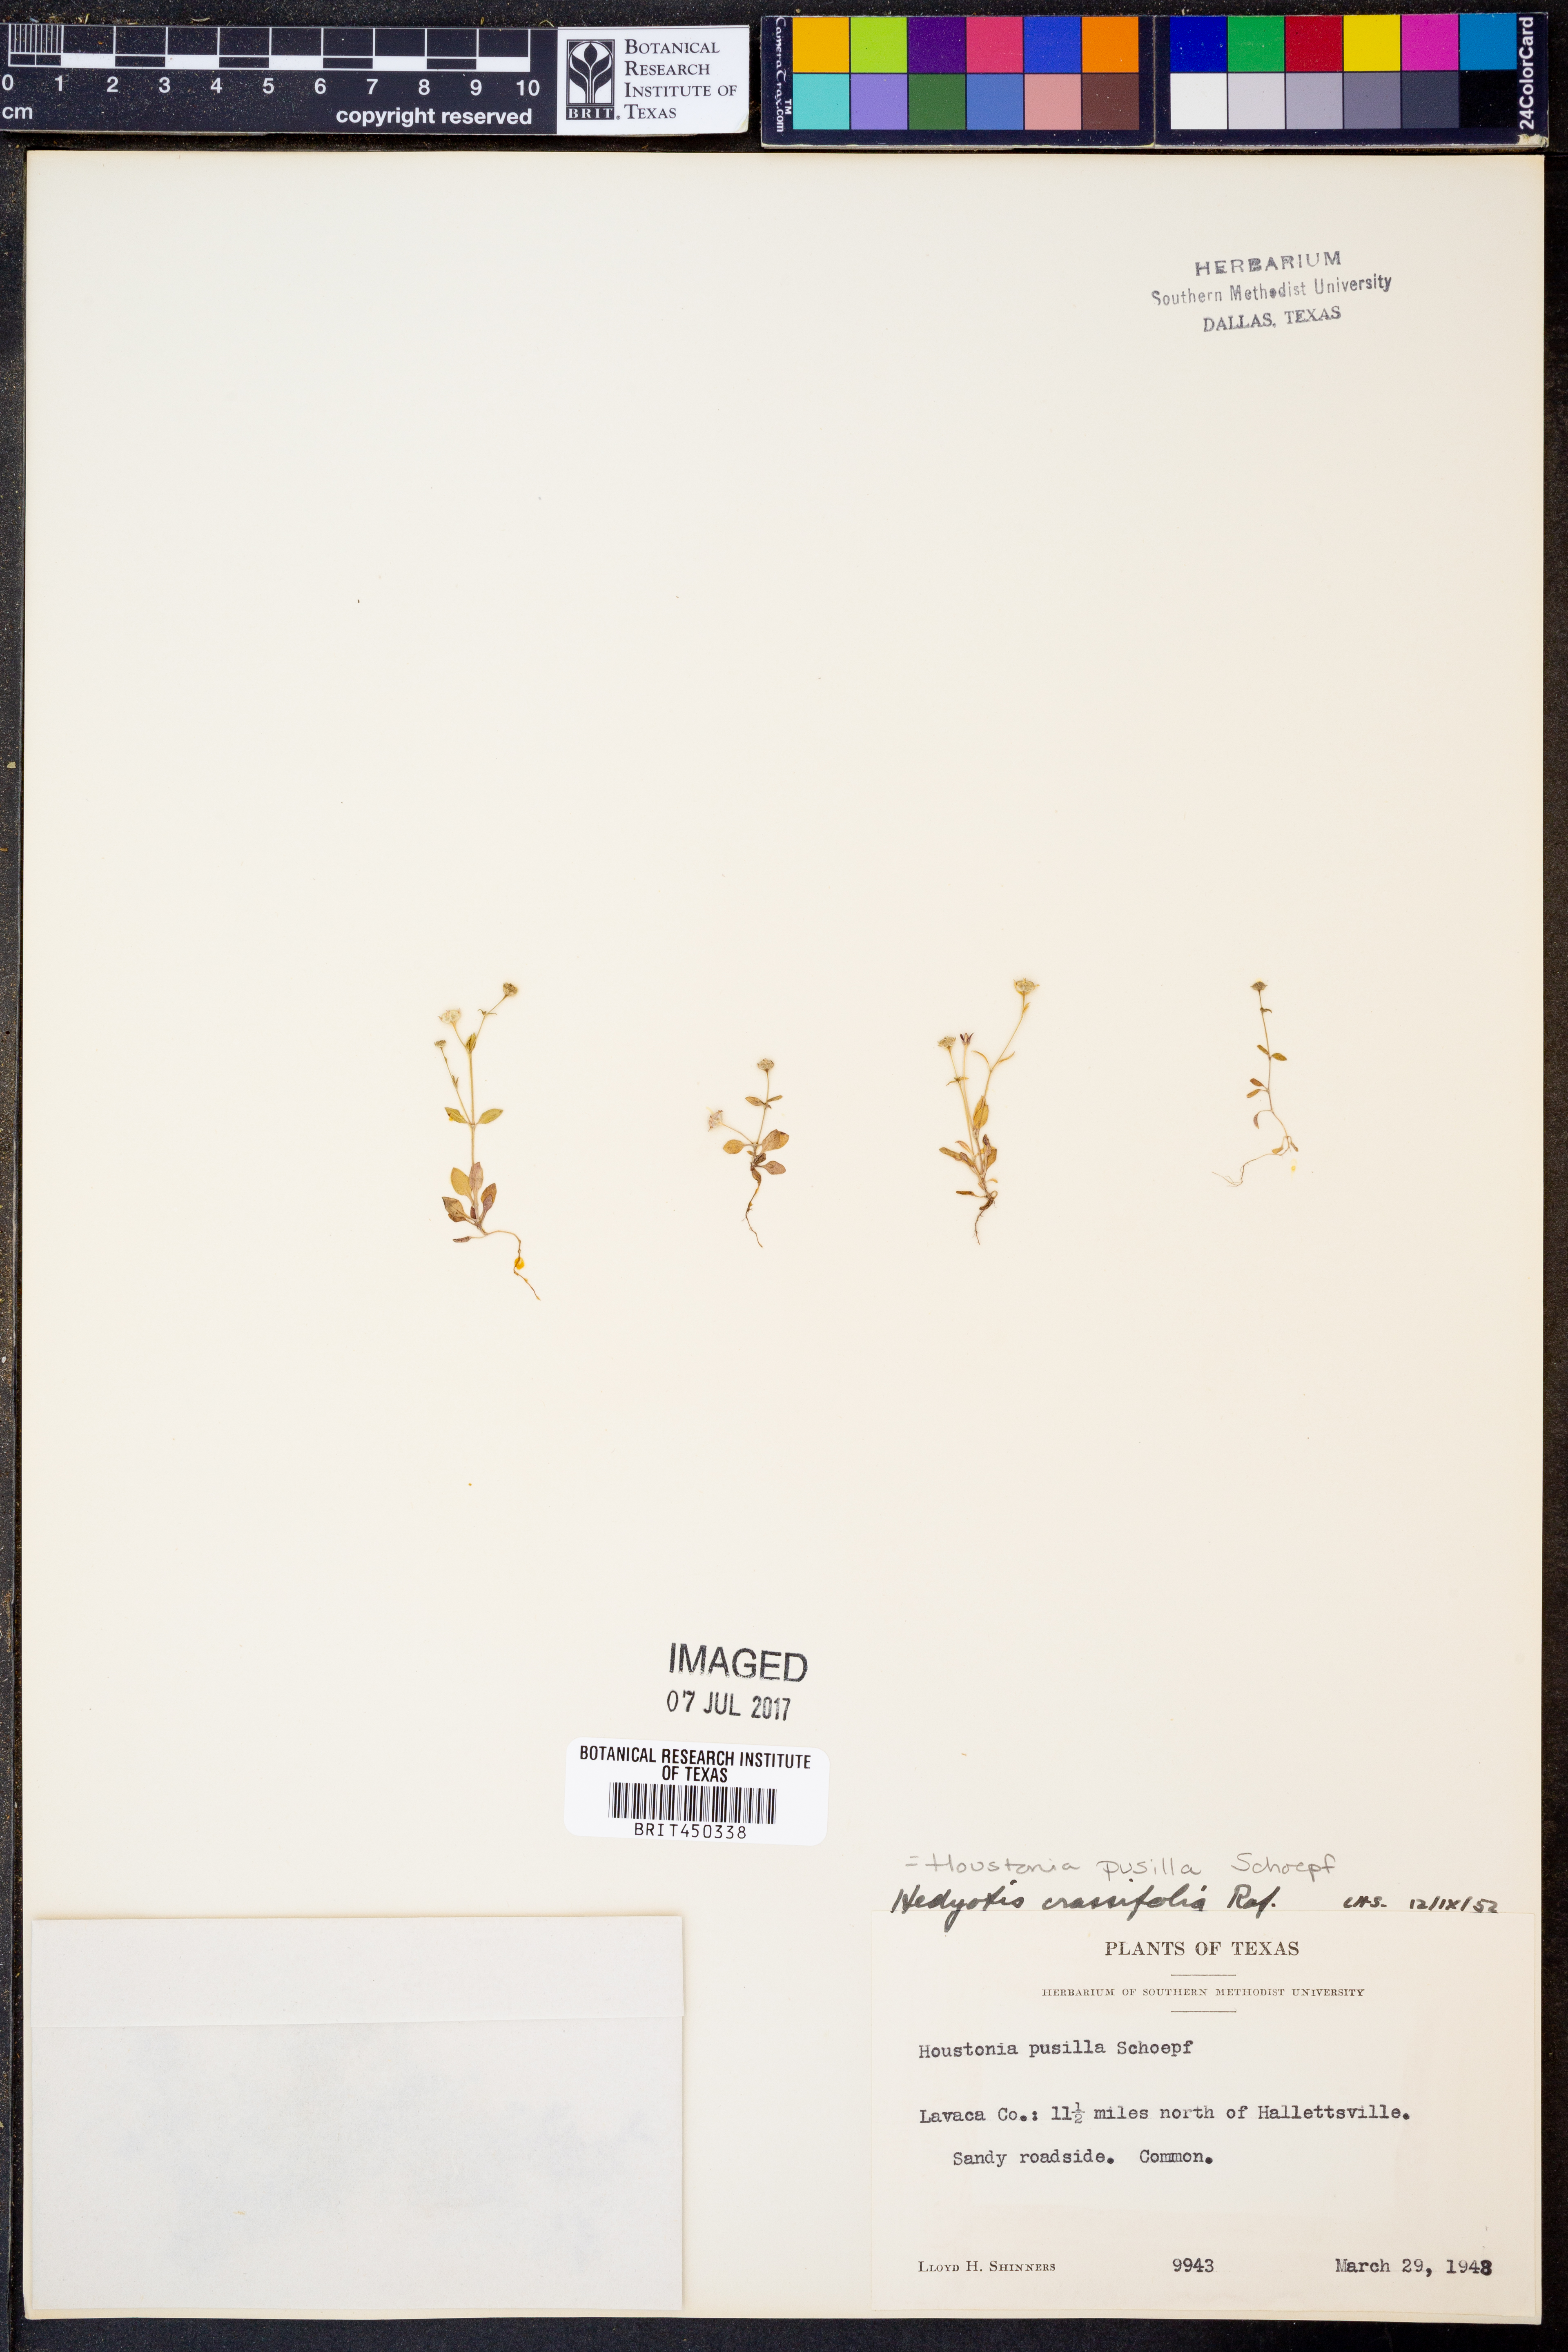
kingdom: Plantae
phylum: Tracheophyta
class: Magnoliopsida
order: Gentianales
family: Rubiaceae
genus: Houstonia
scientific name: Houstonia pusilla
